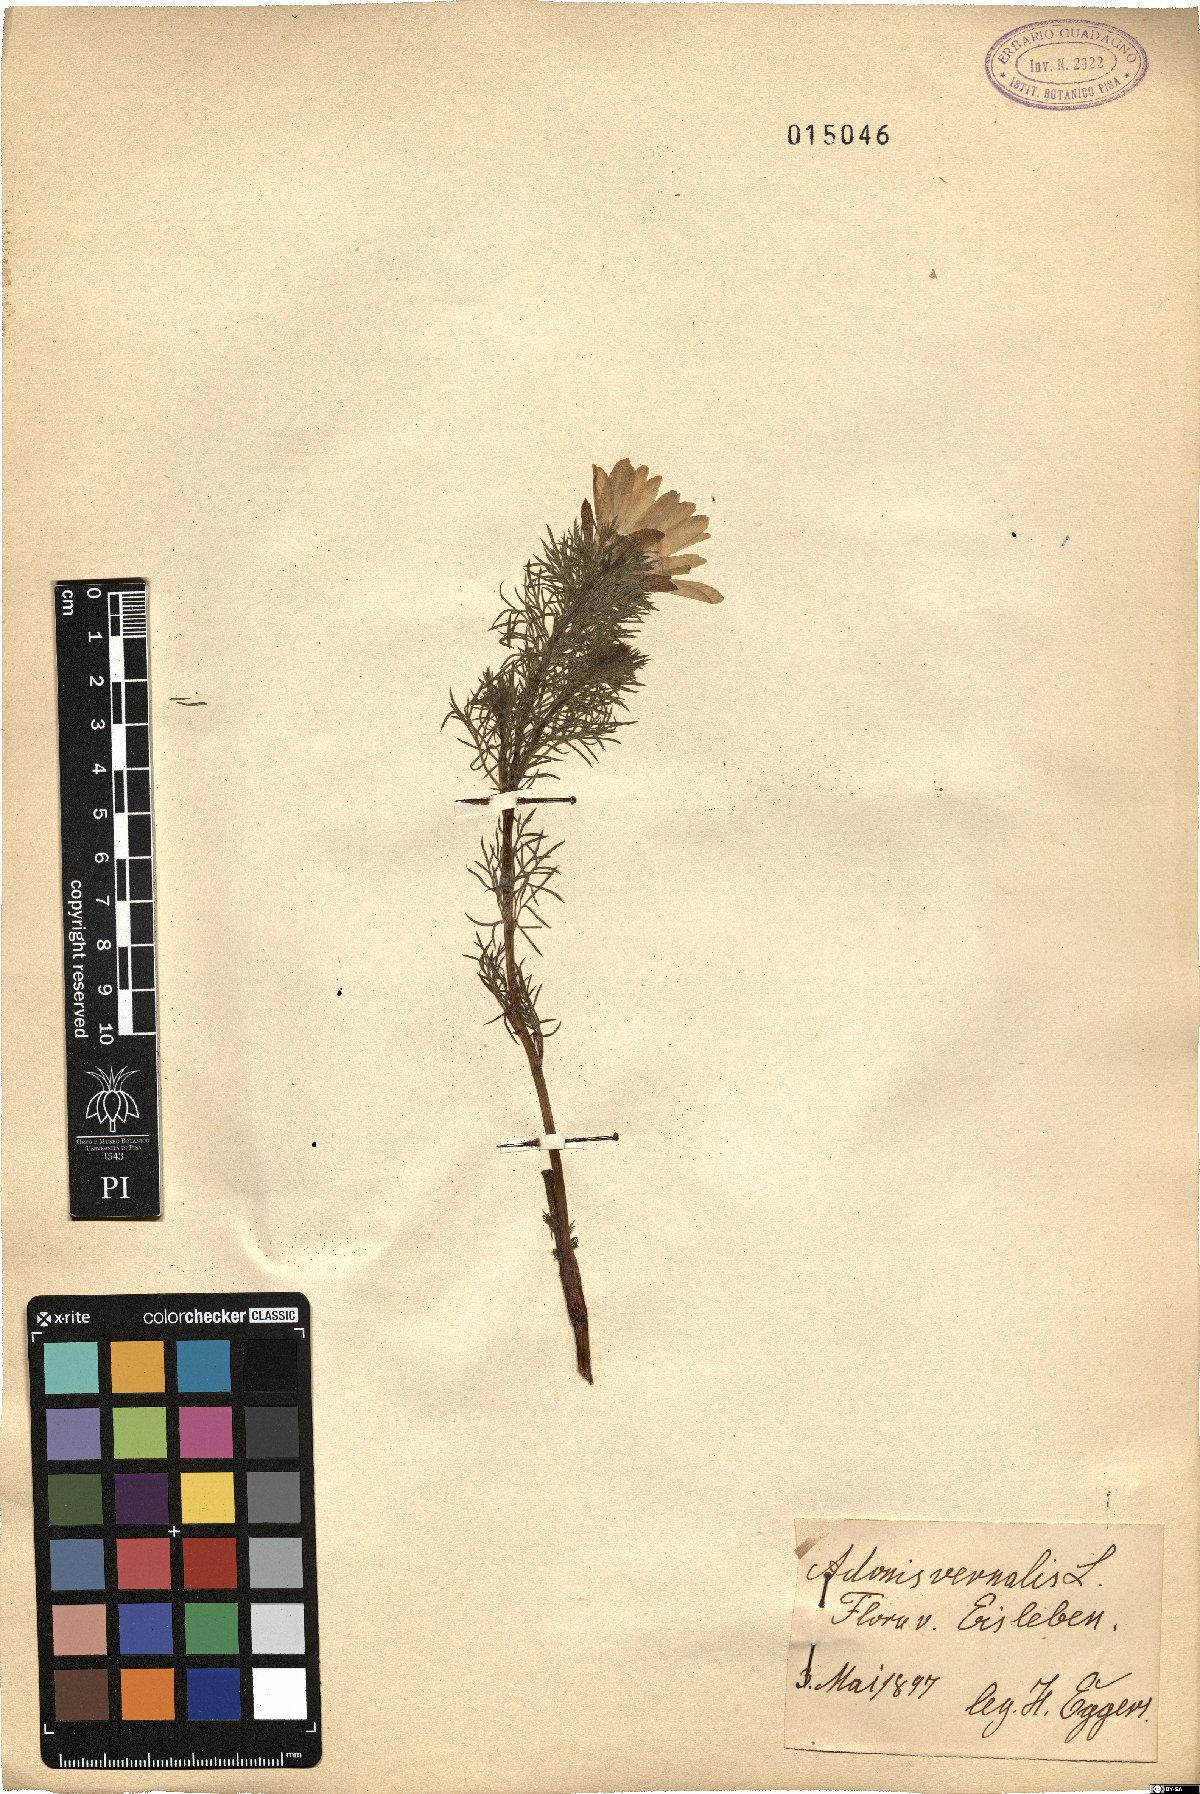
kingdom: Plantae
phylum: Tracheophyta
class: Magnoliopsida
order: Ranunculales
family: Ranunculaceae
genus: Adonis
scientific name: Adonis vernalis
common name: Yellow pheasants-eye
